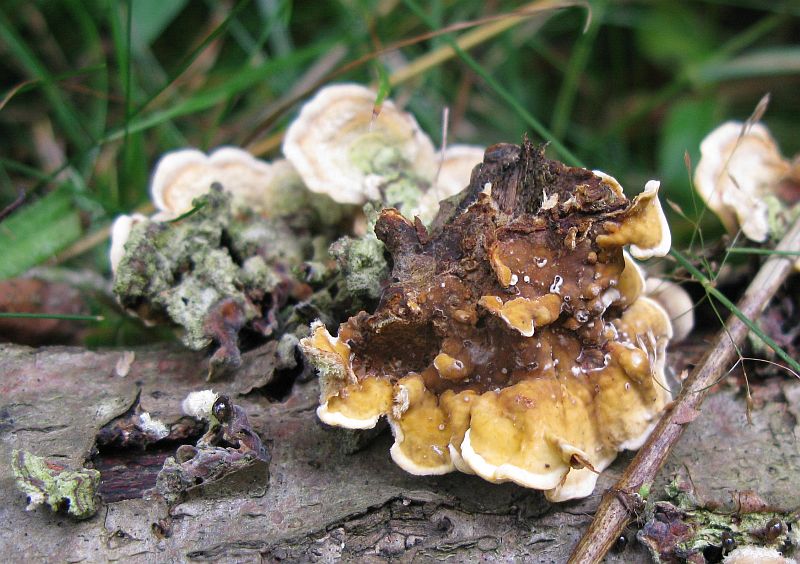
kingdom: Fungi
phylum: Basidiomycota
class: Agaricomycetes
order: Russulales
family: Stereaceae
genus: Stereum
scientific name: Stereum hirsutum
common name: håret lædersvamp
